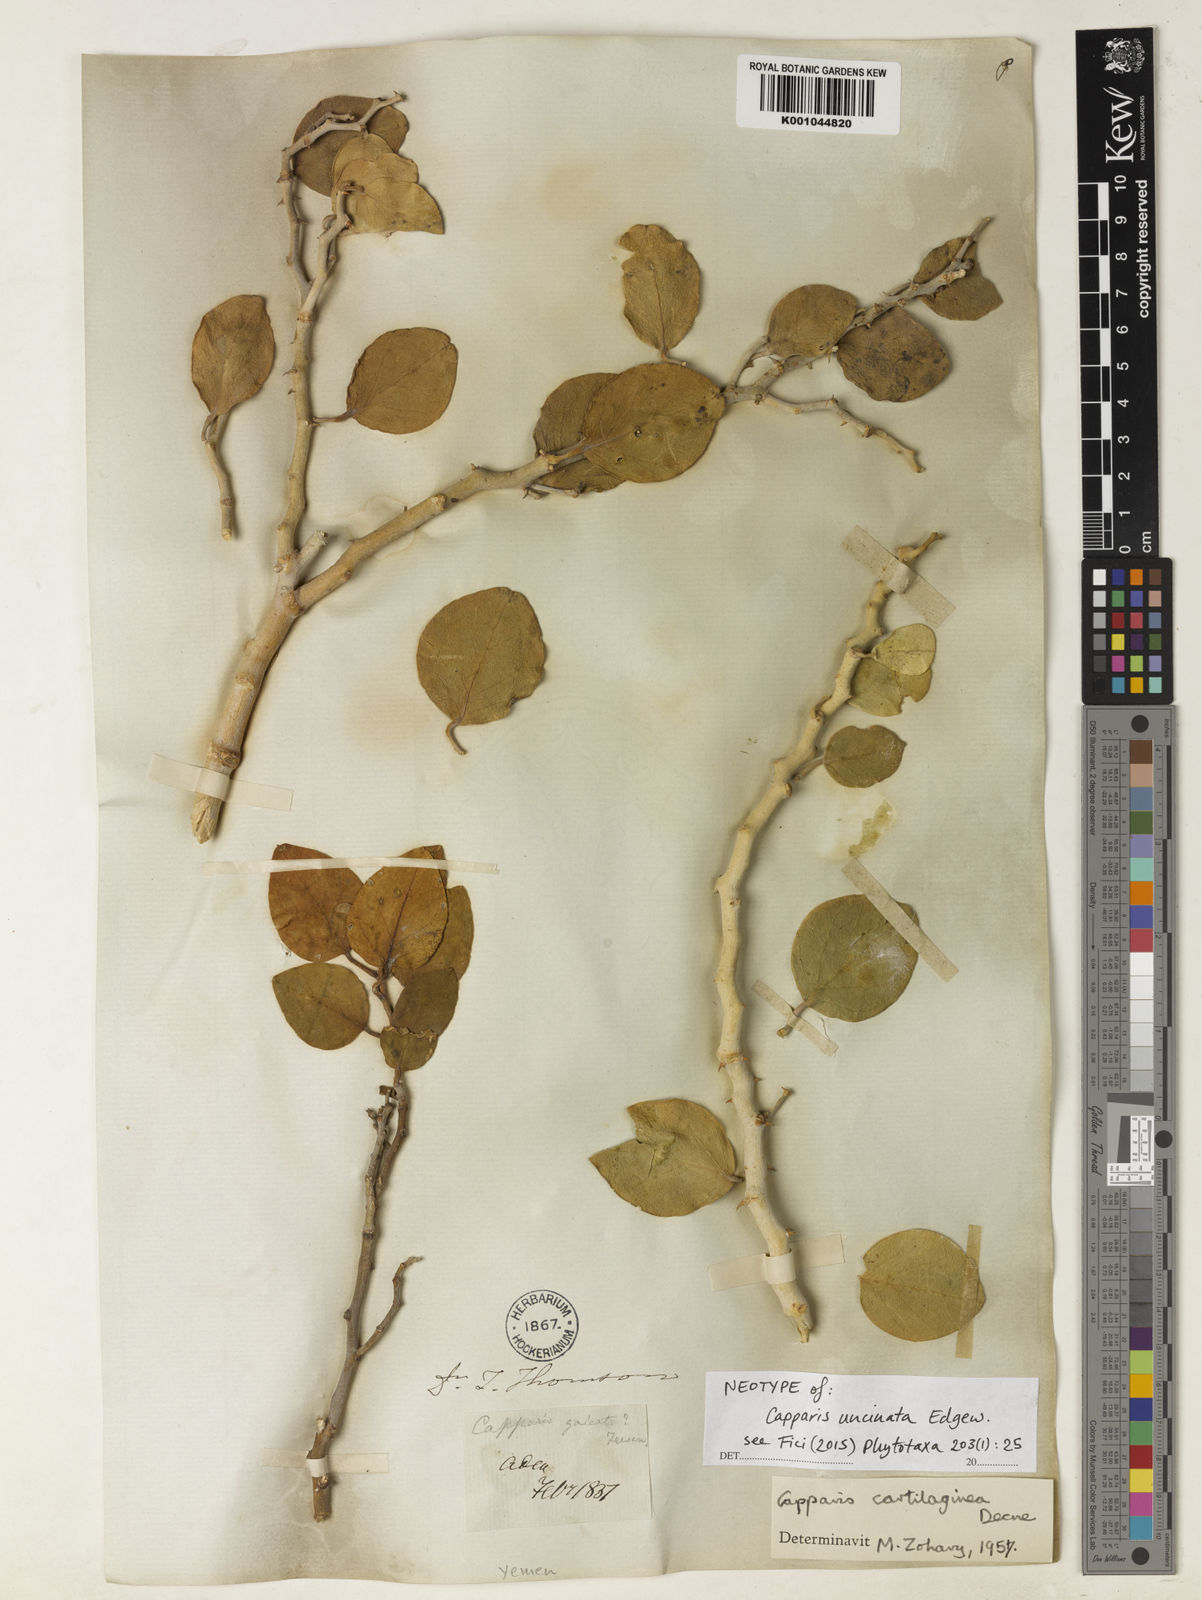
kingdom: Plantae
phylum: Tracheophyta
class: Magnoliopsida
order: Brassicales
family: Capparaceae
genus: Capparis
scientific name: Capparis cartilaginea
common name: Caper
